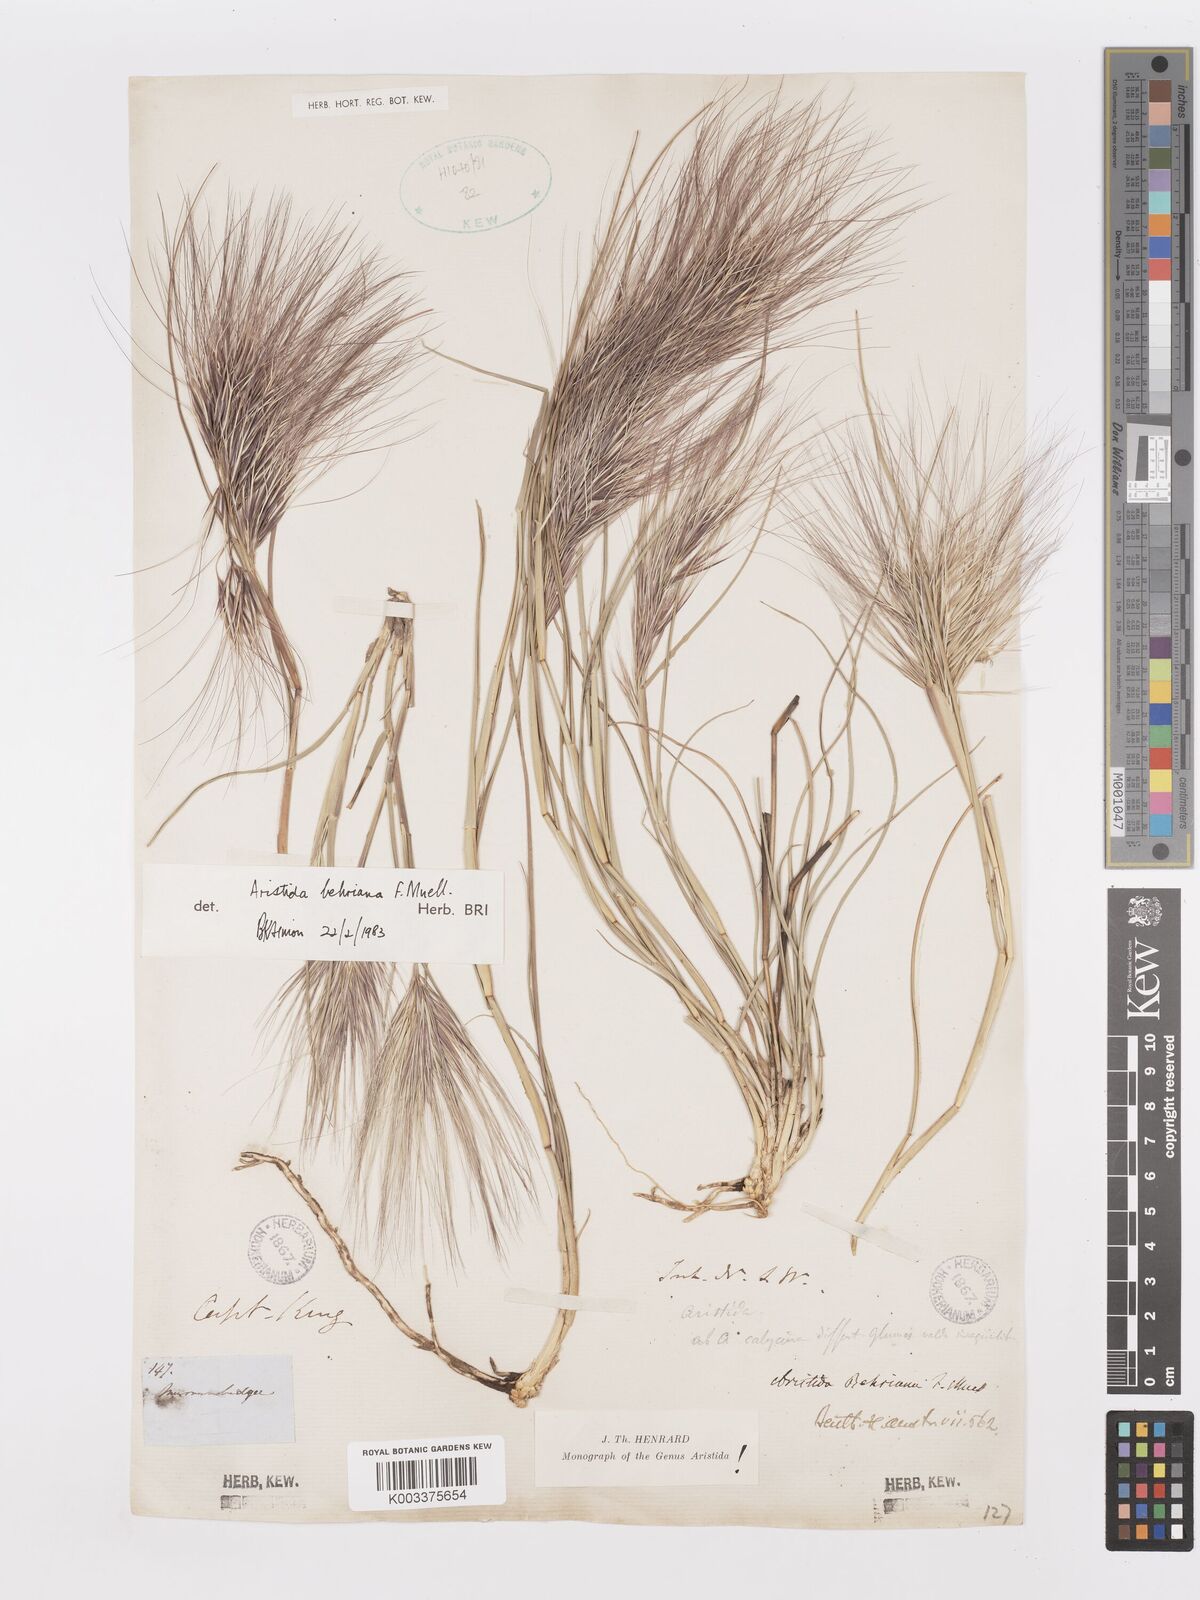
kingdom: Plantae
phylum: Tracheophyta
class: Liliopsida
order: Poales
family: Poaceae
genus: Aristida
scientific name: Aristida behriana
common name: Long-awn wire grass
